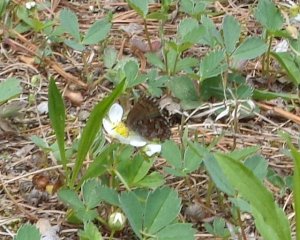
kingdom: Animalia
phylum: Arthropoda
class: Insecta
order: Lepidoptera
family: Lycaenidae
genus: Incisalia
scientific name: Incisalia niphon
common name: Eastern Pine Elfin
